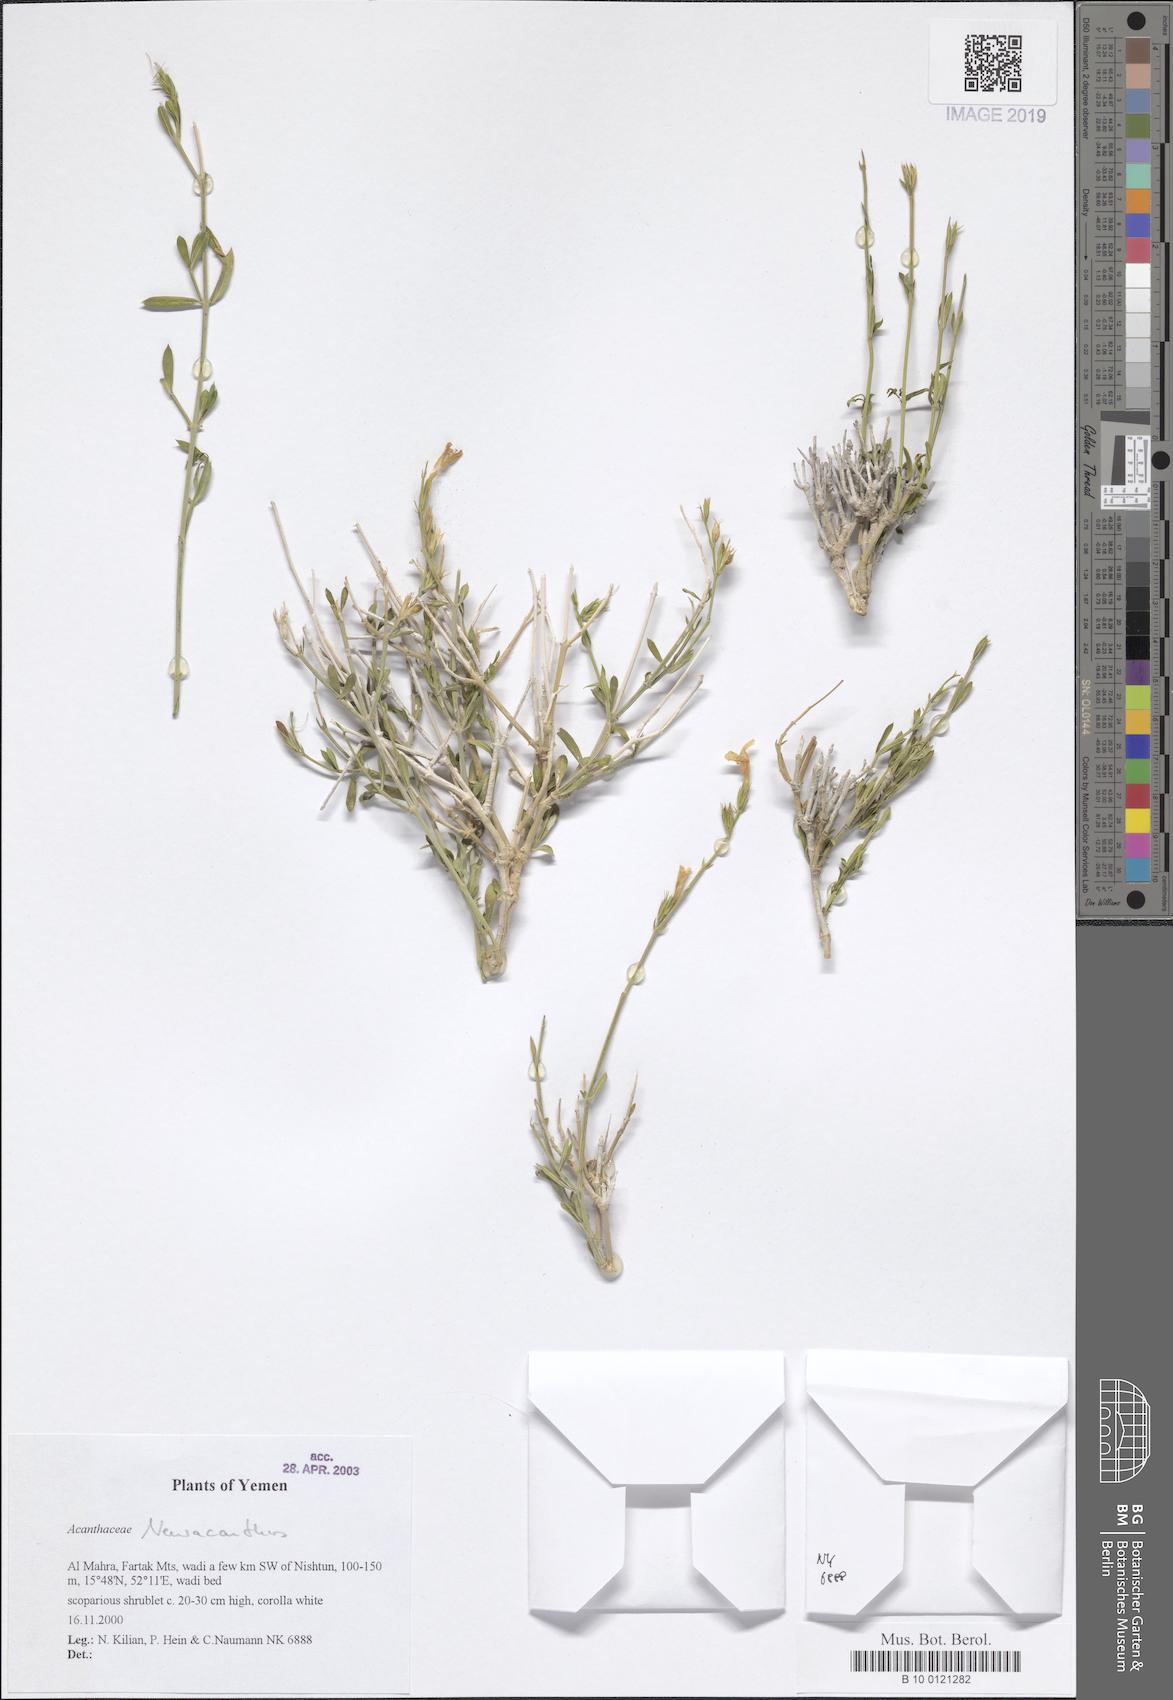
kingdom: Plantae
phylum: Tracheophyta
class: Magnoliopsida
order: Lamiales
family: Acanthaceae
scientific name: Acanthaceae
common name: Acanthaceae
